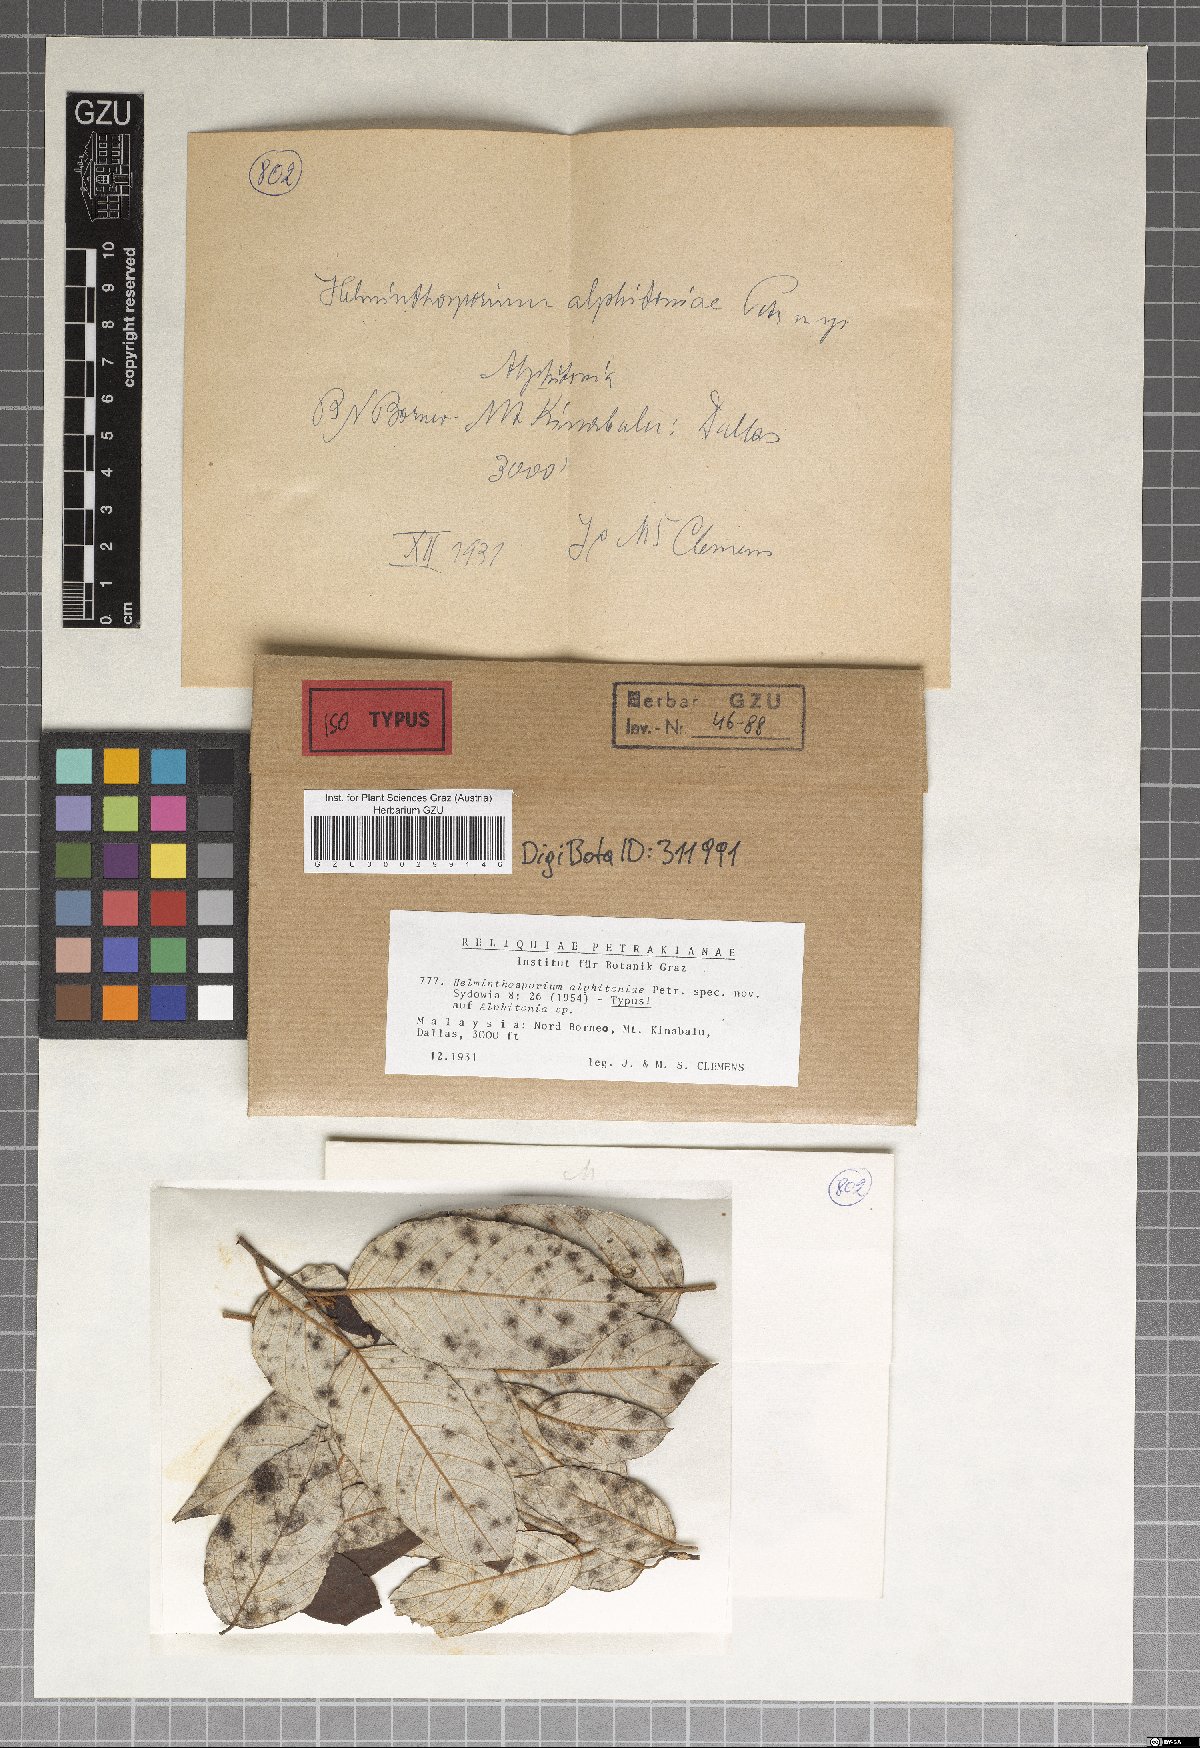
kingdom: Fungi
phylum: Ascomycota
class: Dothideomycetes
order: Pleosporales
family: Massarinaceae
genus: Helminthosporium
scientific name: Helminthosporium alphitoniae
